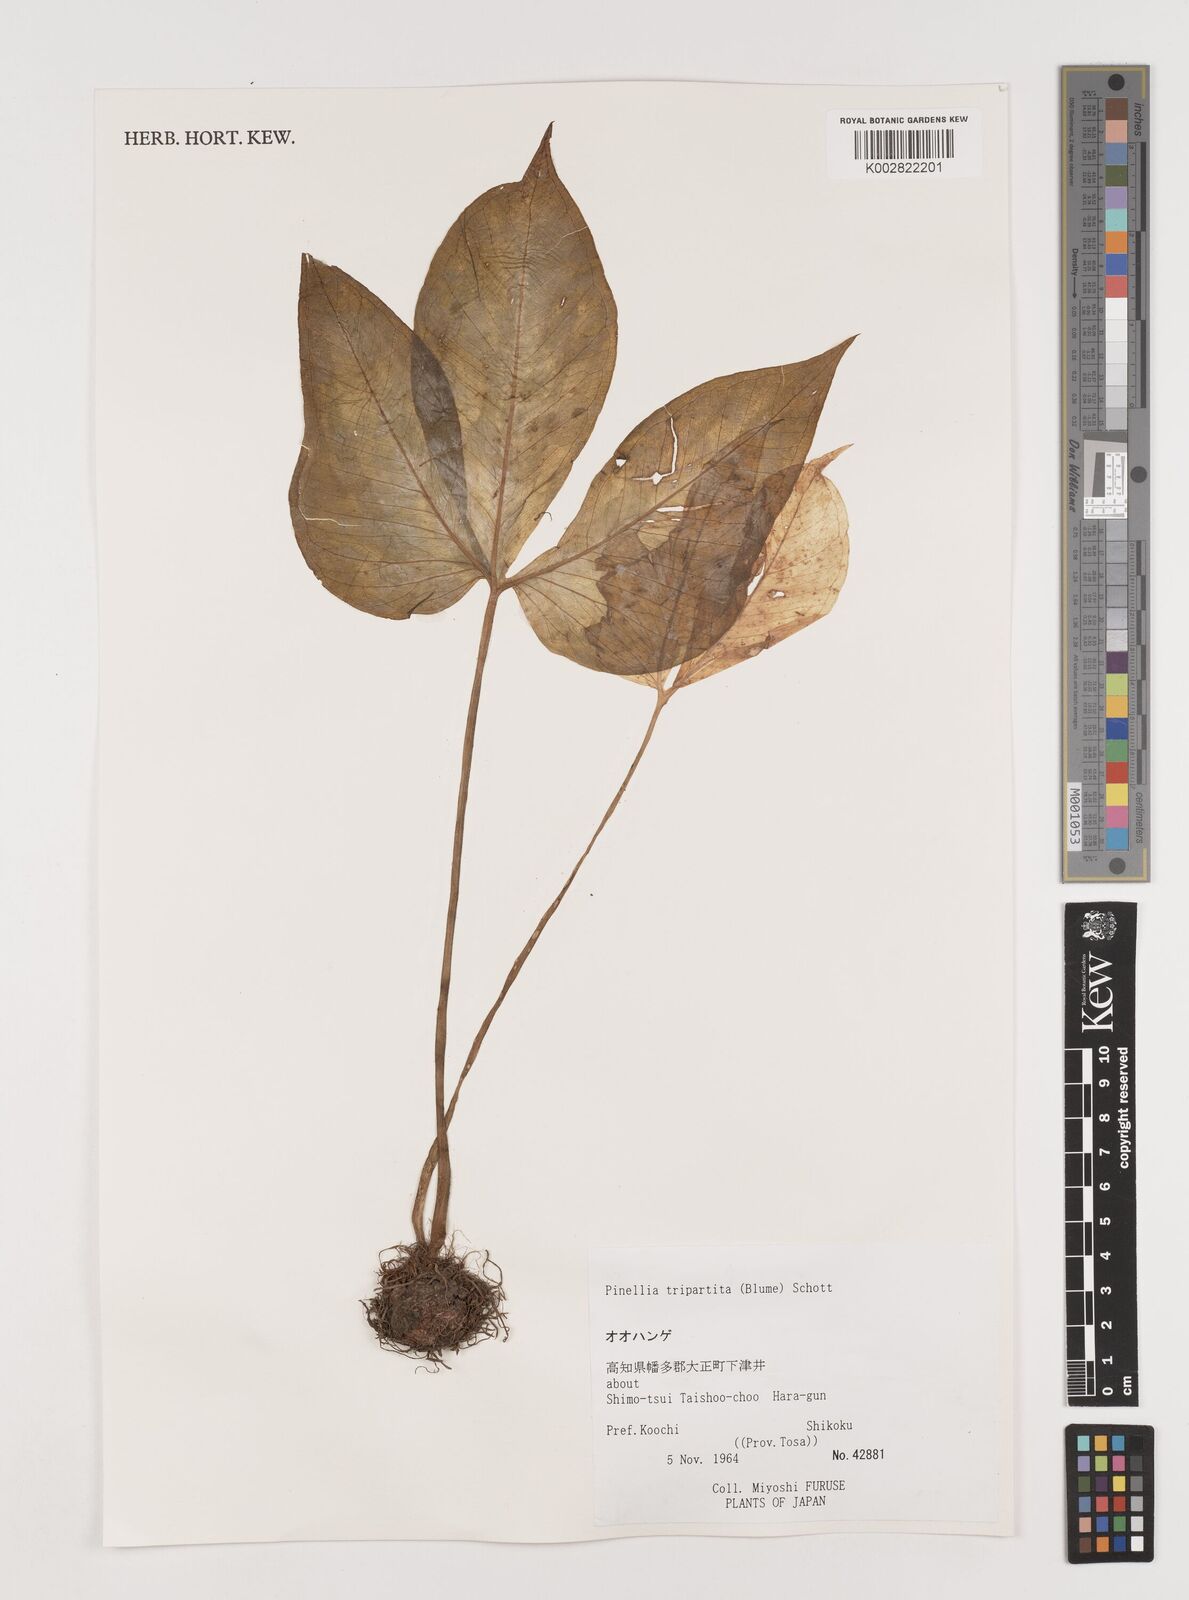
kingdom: Plantae
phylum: Tracheophyta
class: Liliopsida
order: Alismatales
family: Araceae
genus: Pinellia
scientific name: Pinellia tripartita
